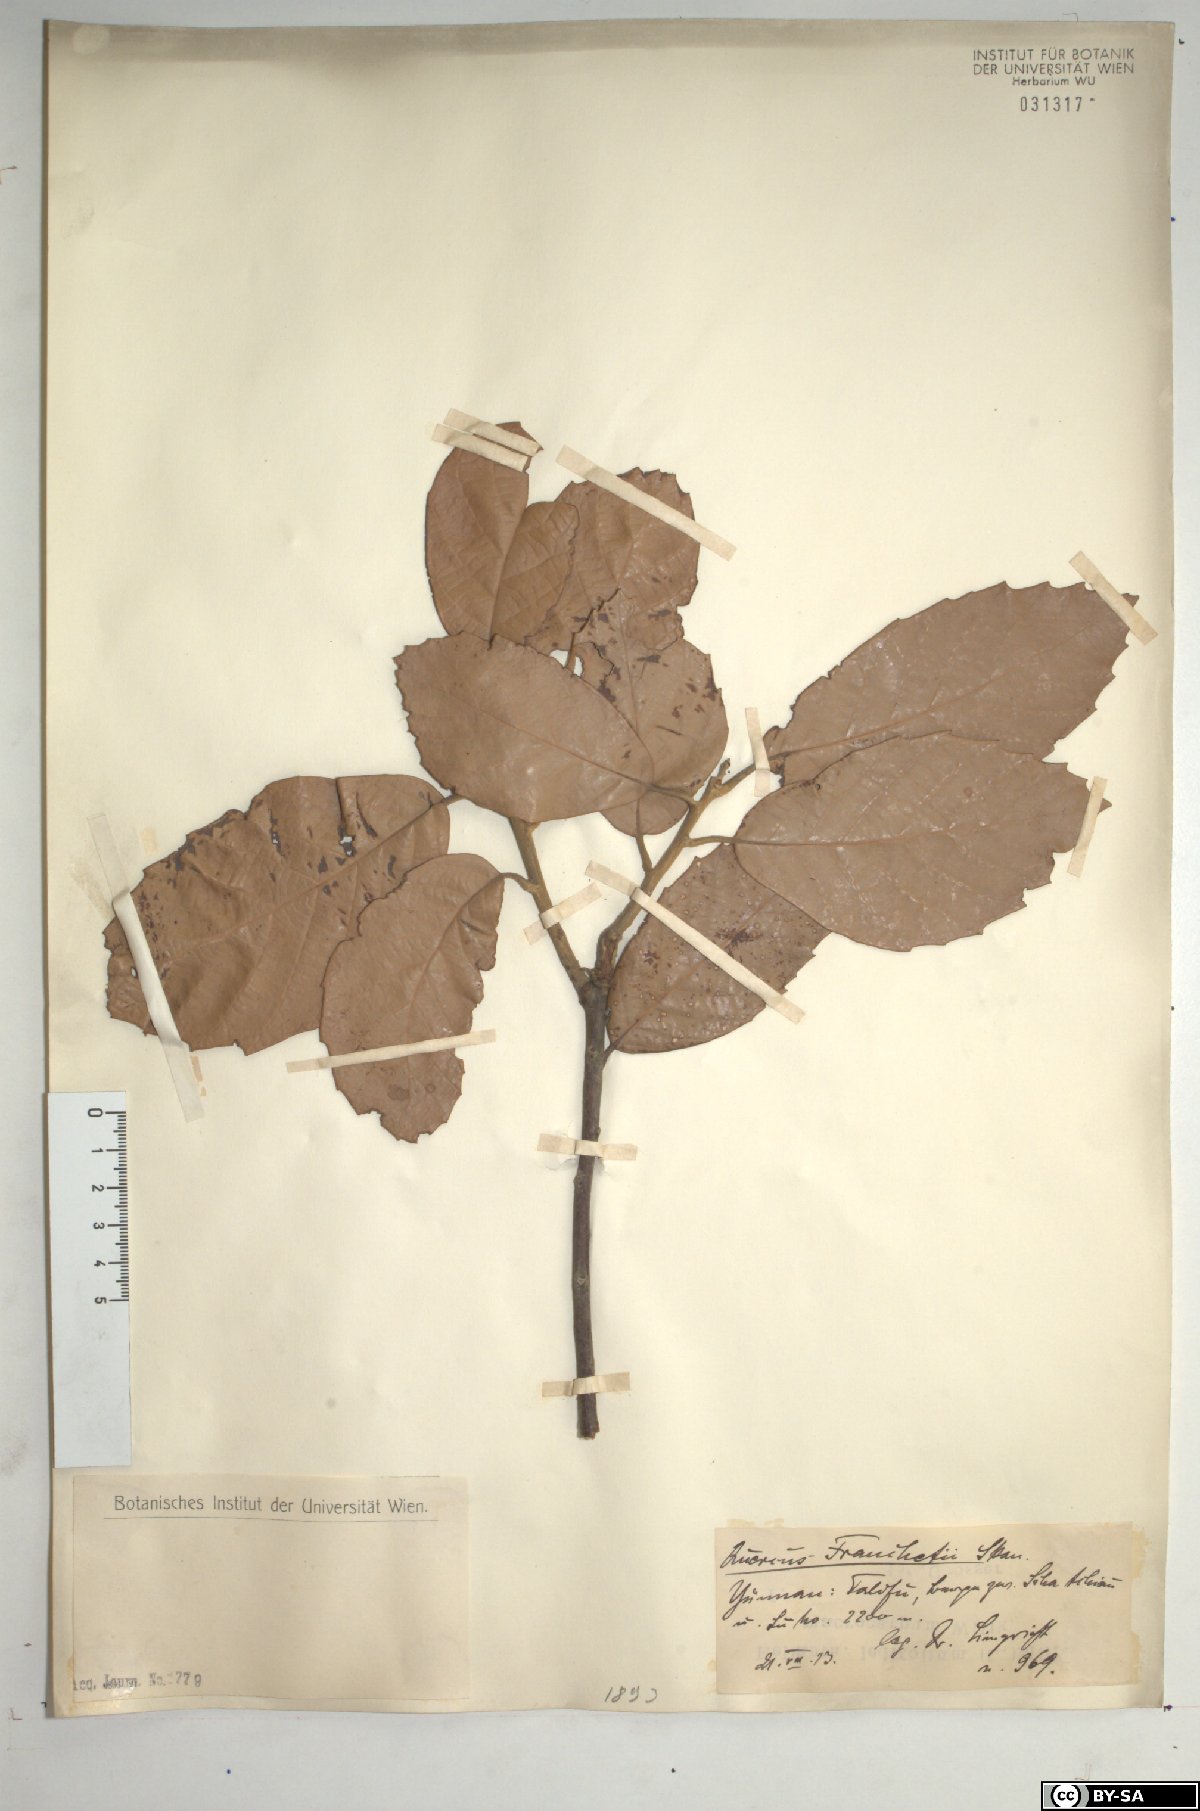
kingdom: Plantae
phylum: Tracheophyta
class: Magnoliopsida
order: Fagales
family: Fagaceae
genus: Quercus
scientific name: Quercus franchetii
